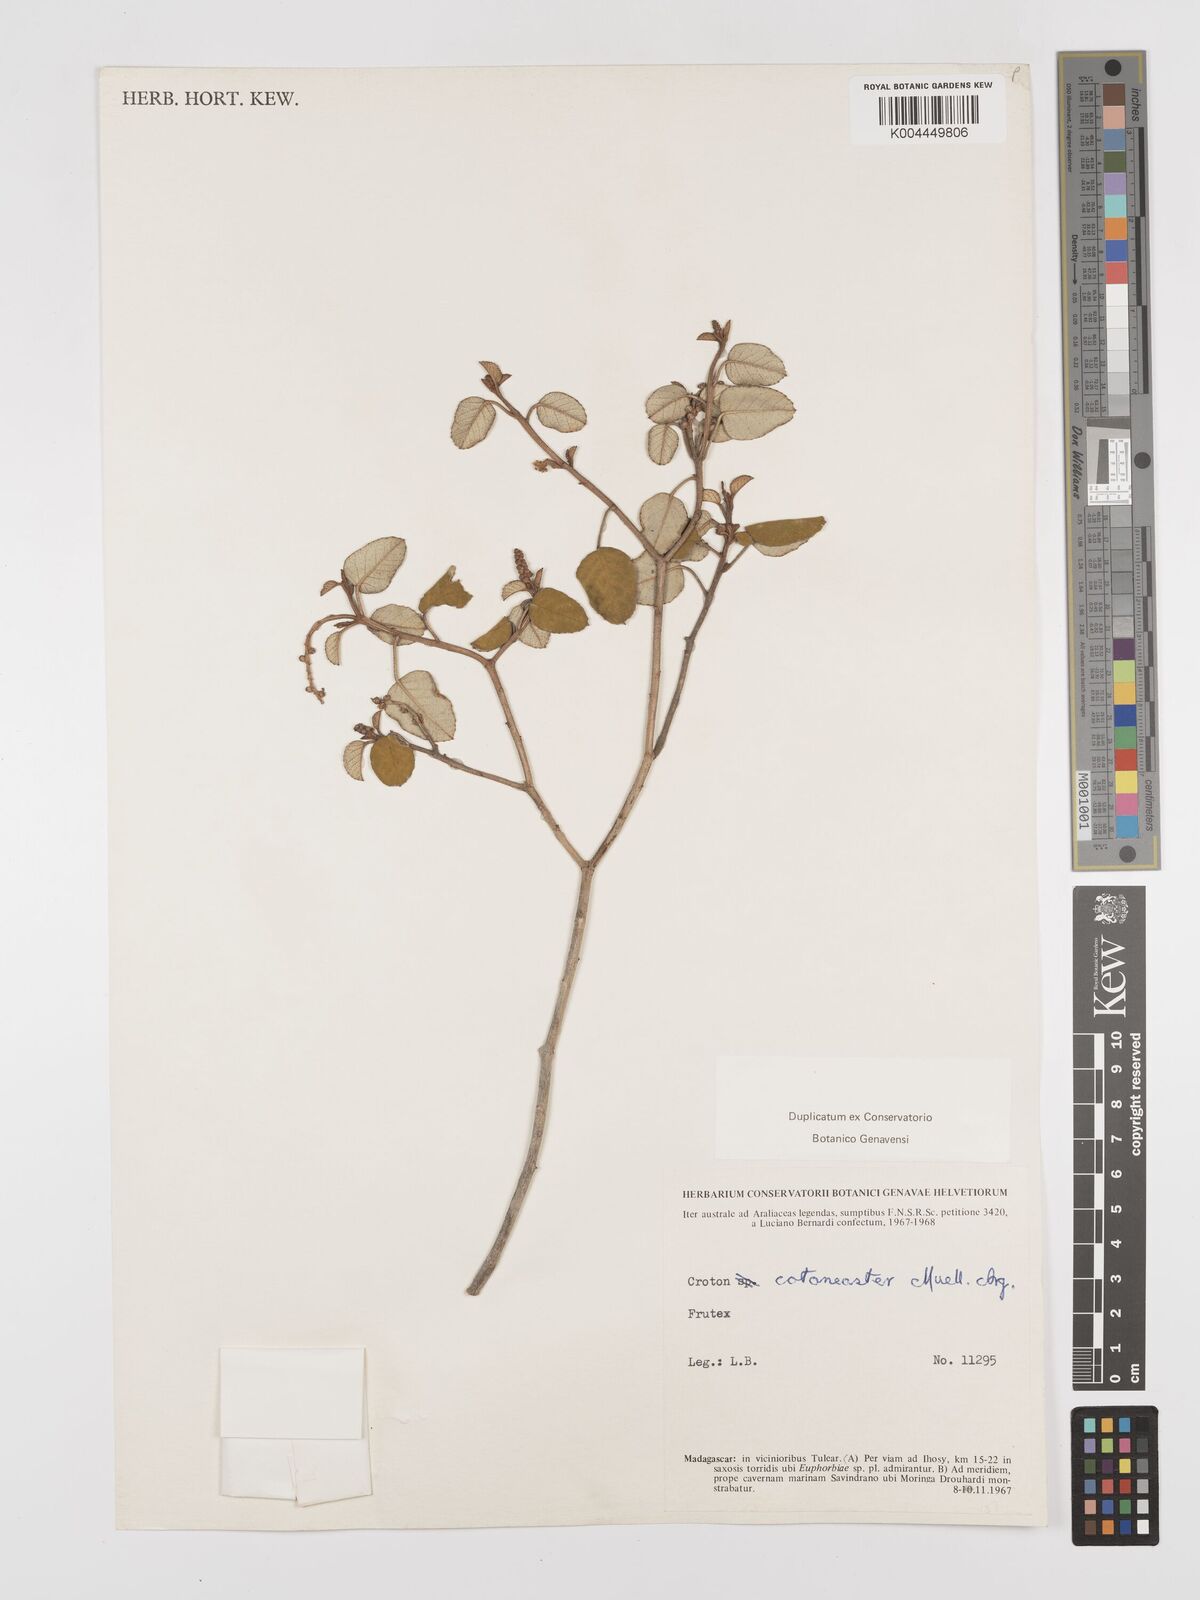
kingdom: Plantae
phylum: Tracheophyta
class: Magnoliopsida
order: Malpighiales
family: Euphorbiaceae
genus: Croton
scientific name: Croton cotoneaster
